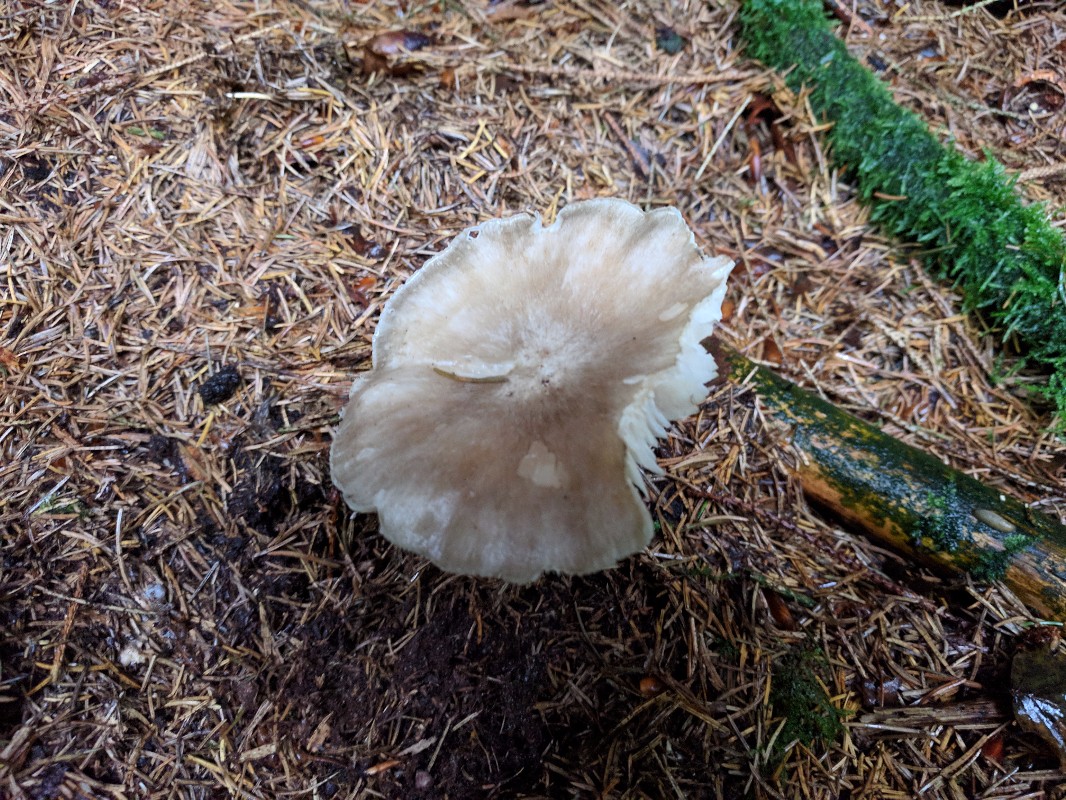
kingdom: Fungi
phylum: Basidiomycota
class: Agaricomycetes
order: Agaricales
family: Tricholomataceae
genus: Megacollybia
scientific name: Megacollybia platyphylla
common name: bredbladet væbnerhat
